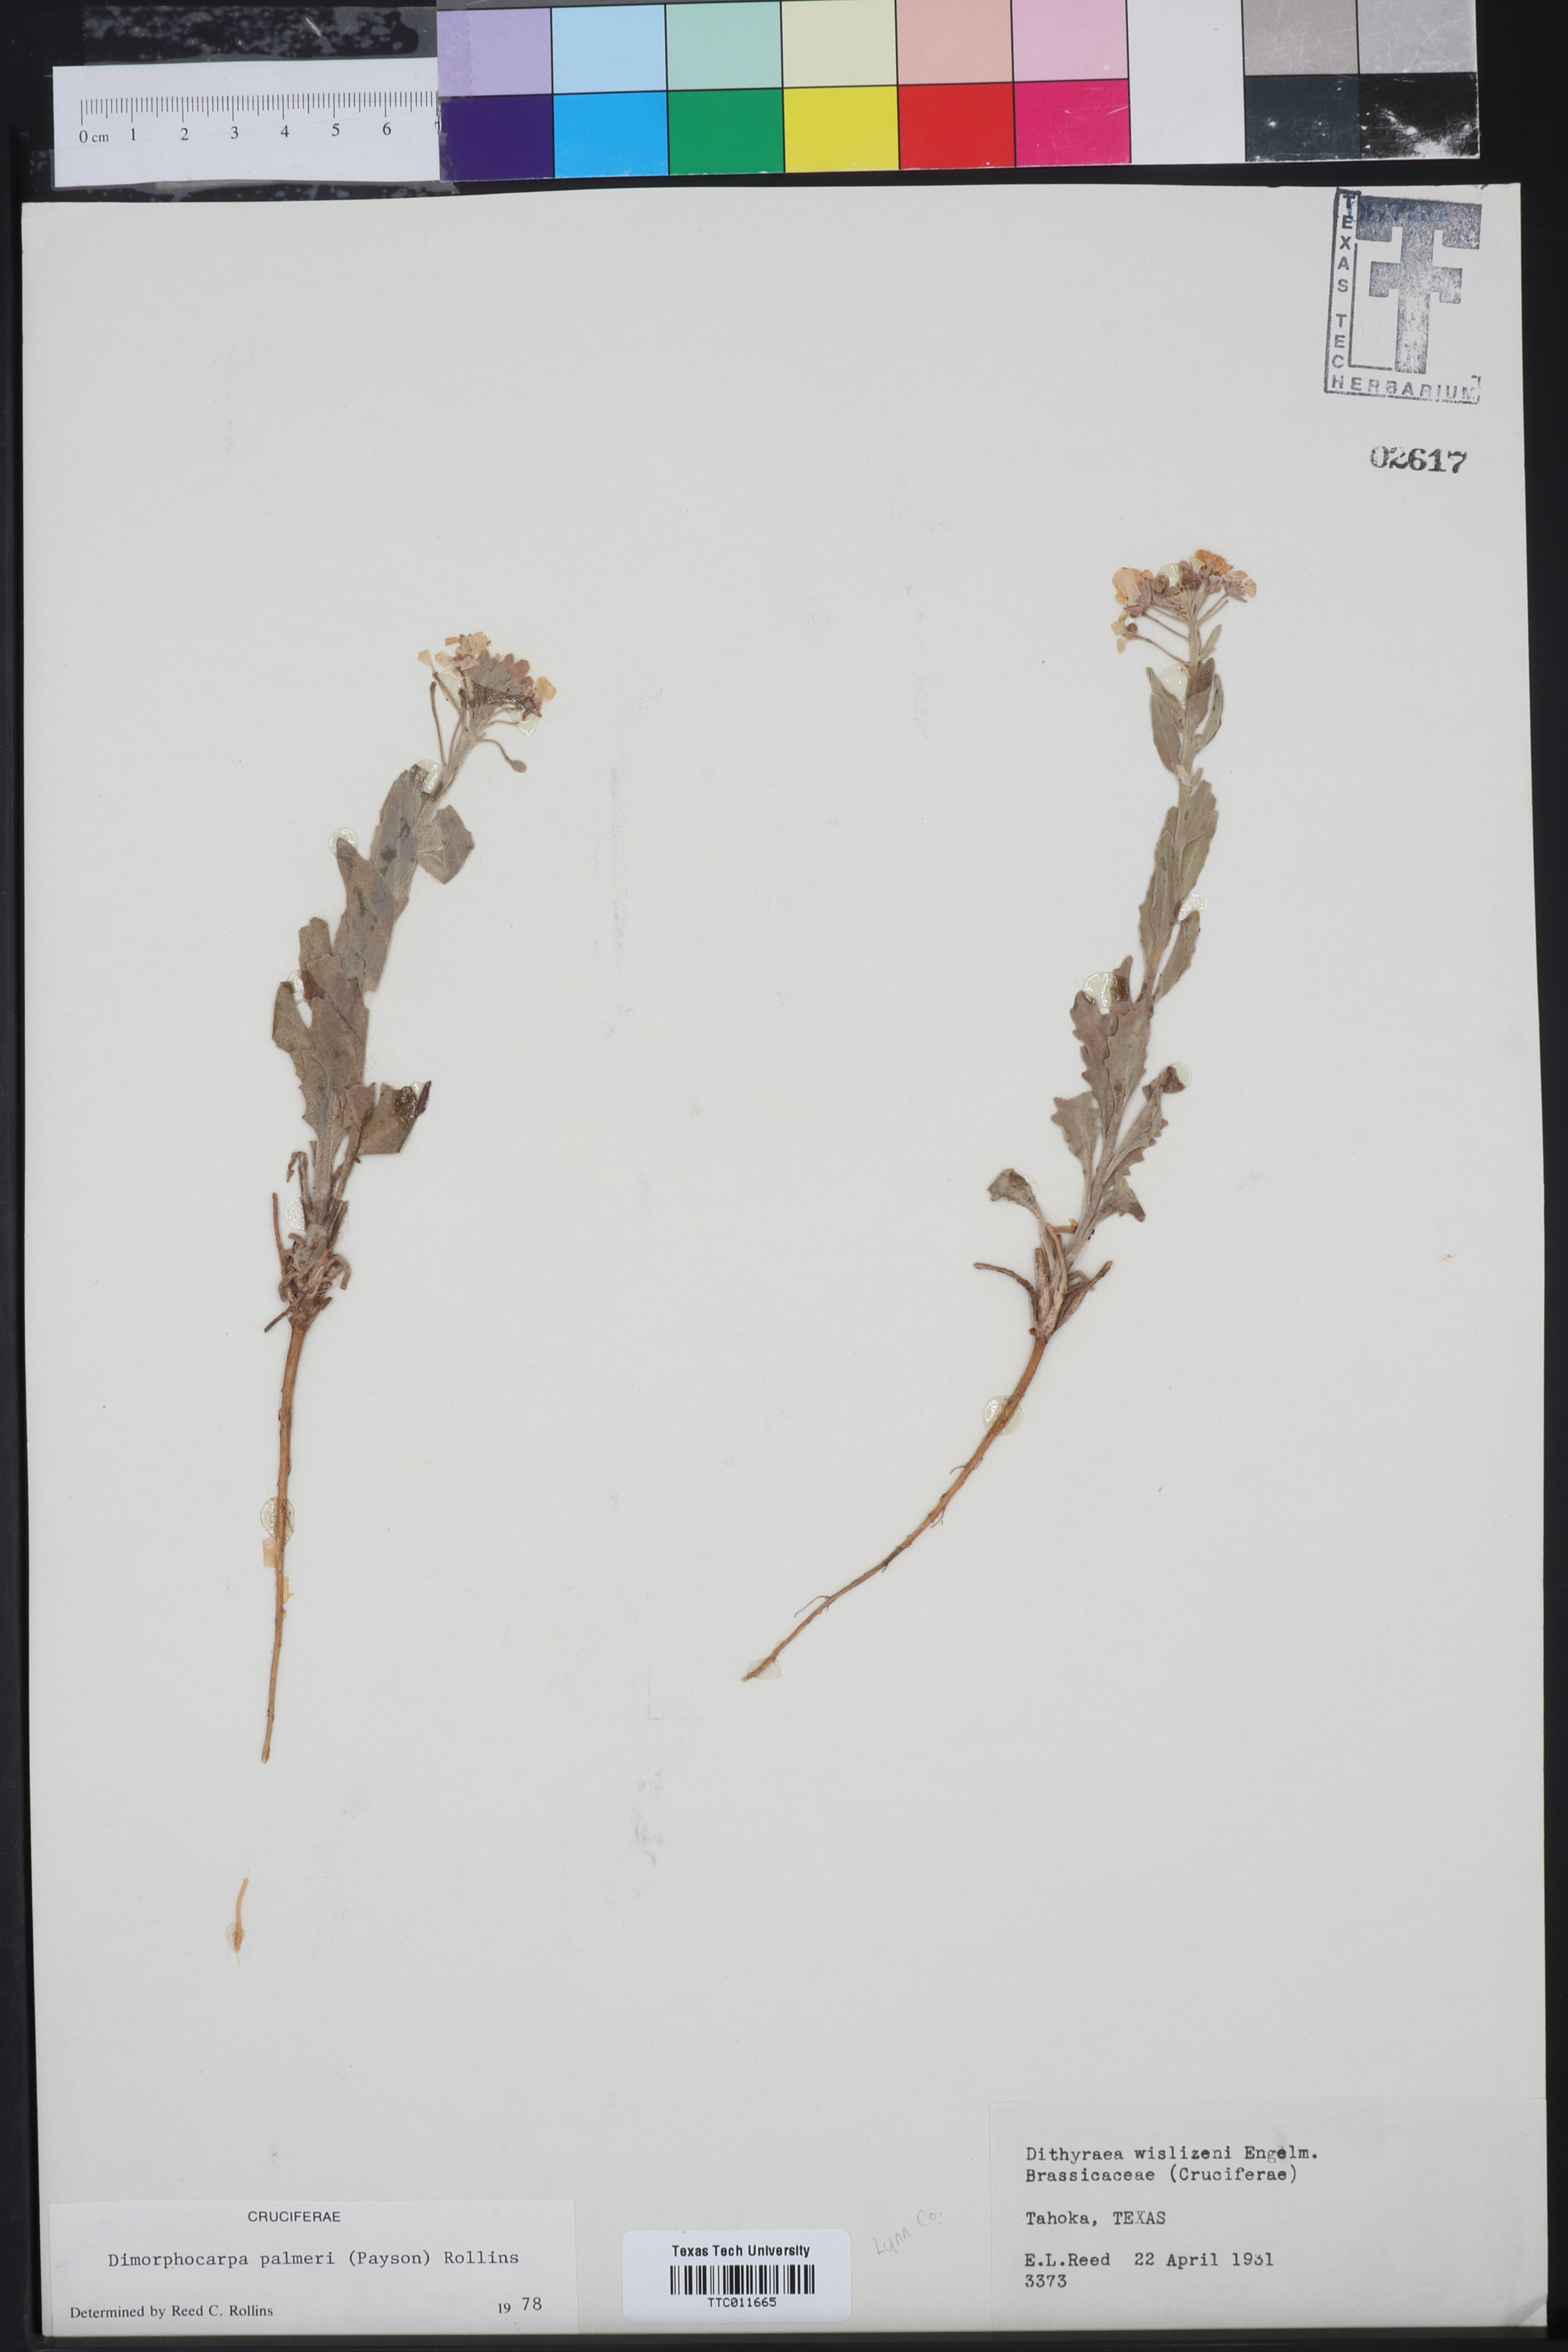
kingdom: Plantae
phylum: Tracheophyta
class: Magnoliopsida
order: Brassicales
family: Brassicaceae
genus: Dimorphocarpa
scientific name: Dimorphocarpa candicans
